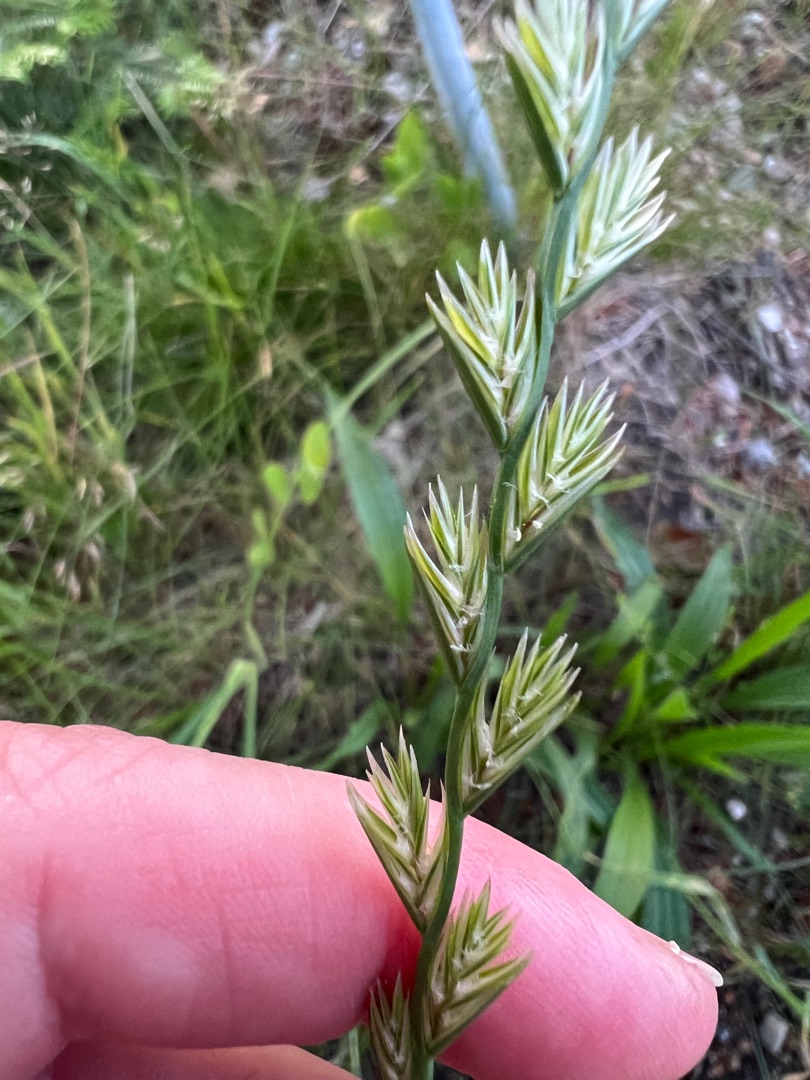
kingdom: Plantae
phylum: Tracheophyta
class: Liliopsida
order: Poales
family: Poaceae
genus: Lolium
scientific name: Lolium perenne
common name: Almindelig rajgræs
